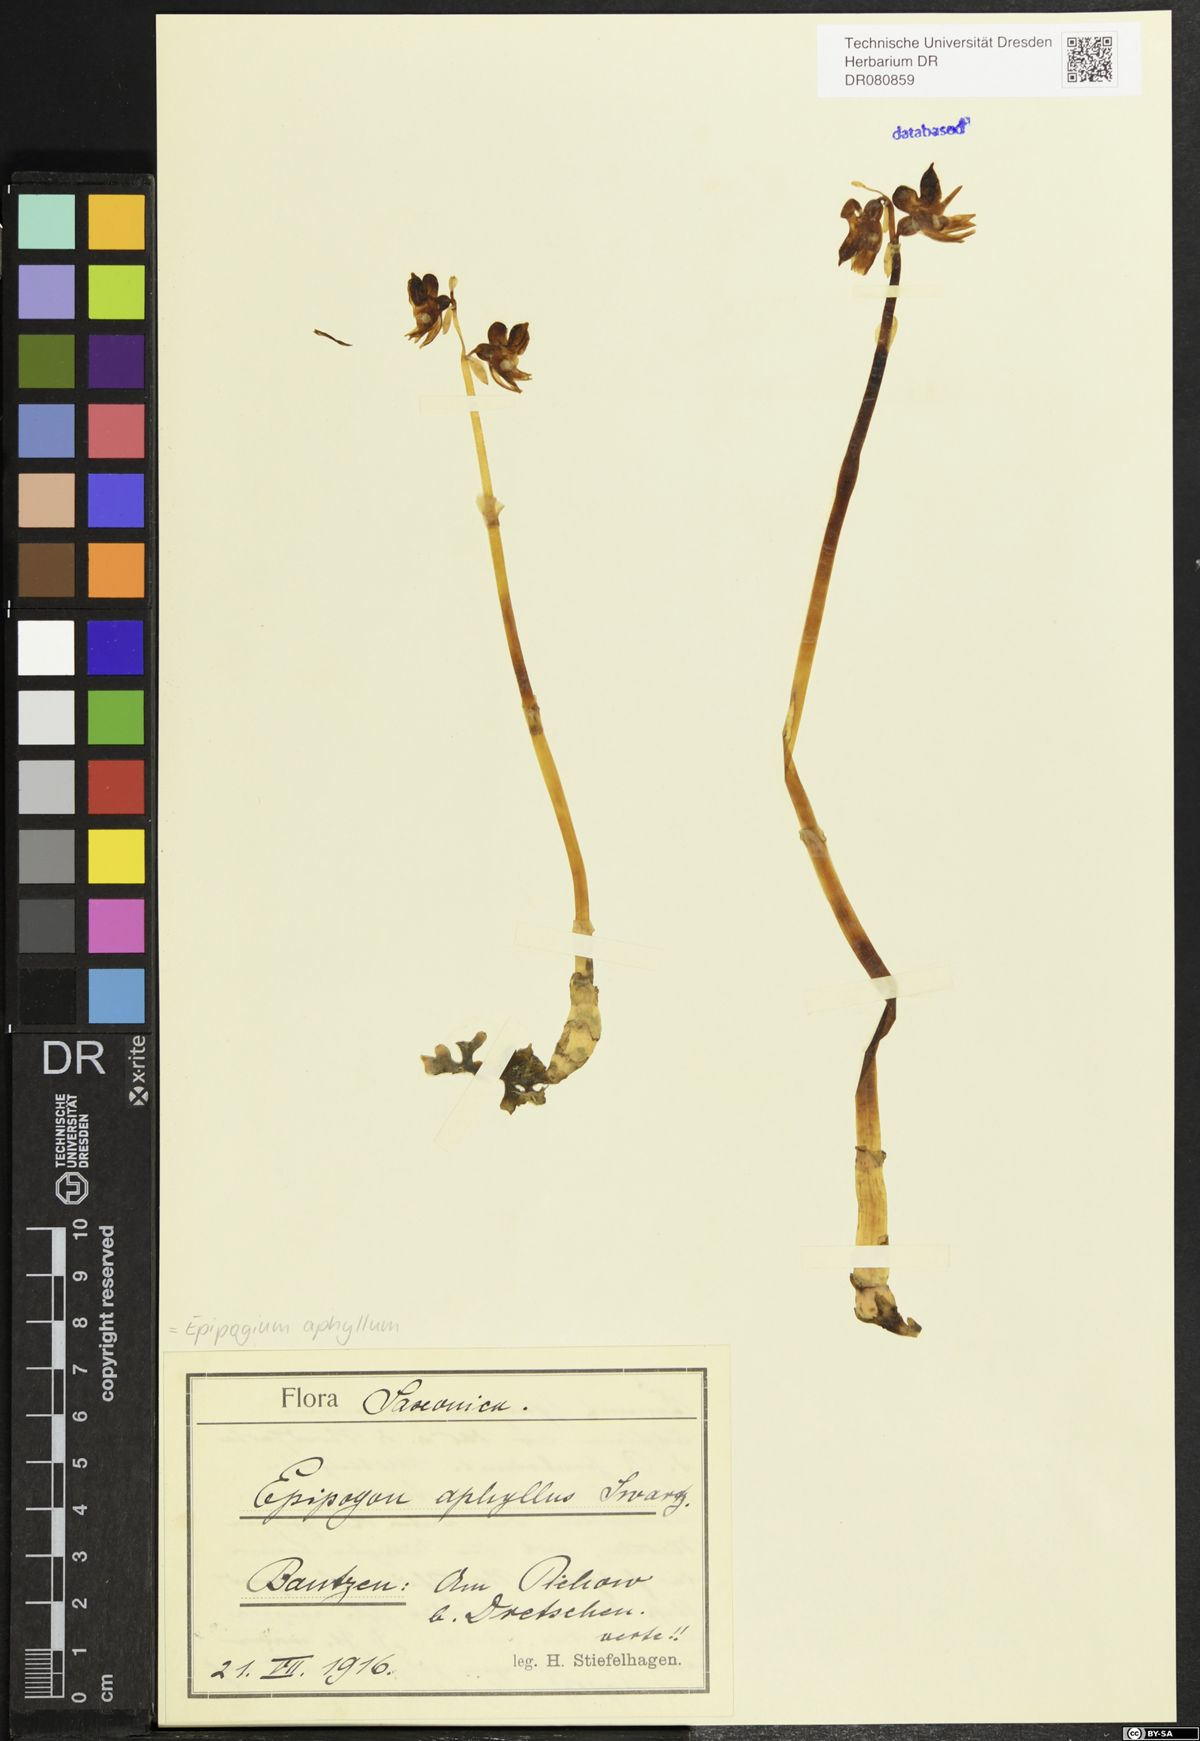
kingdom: Plantae
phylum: Tracheophyta
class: Liliopsida
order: Asparagales
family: Orchidaceae
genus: Epipogium
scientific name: Epipogium aphyllum
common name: Ghost orchid
